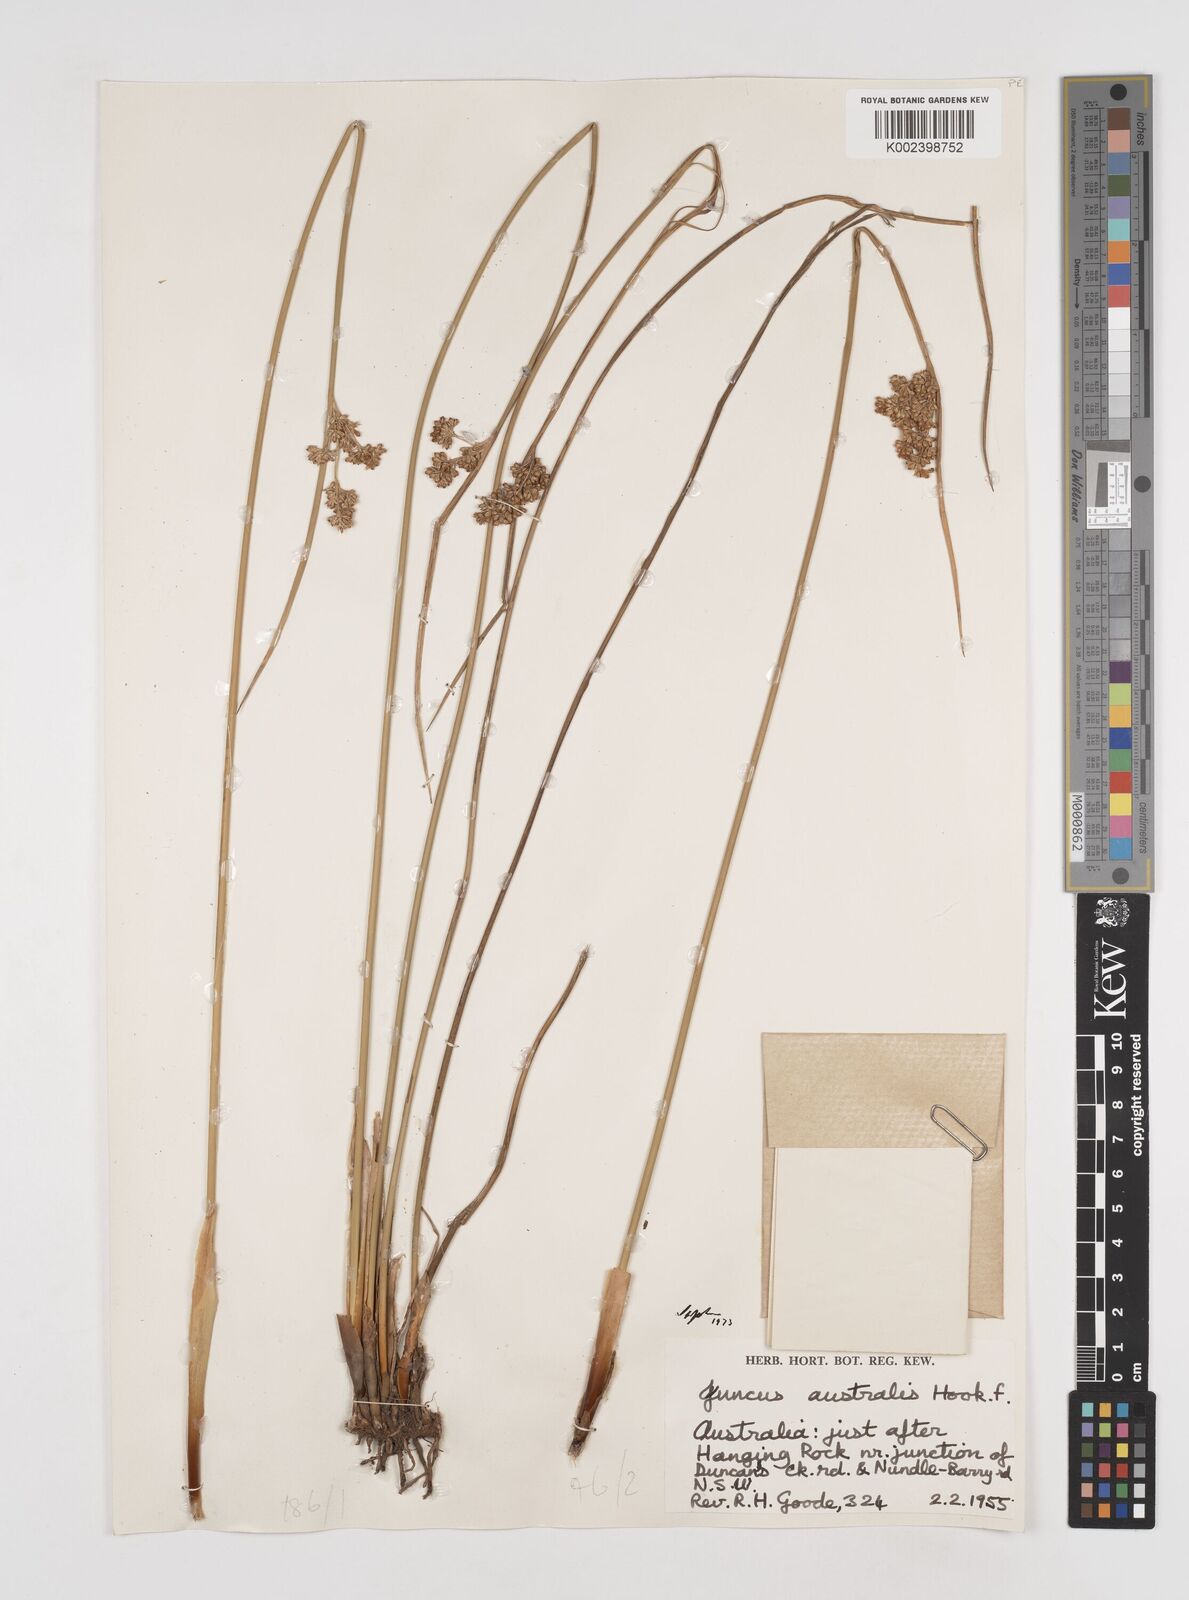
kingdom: Plantae
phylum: Tracheophyta
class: Liliopsida
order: Poales
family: Juncaceae
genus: Juncus
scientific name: Juncus australis
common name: Austral rush
